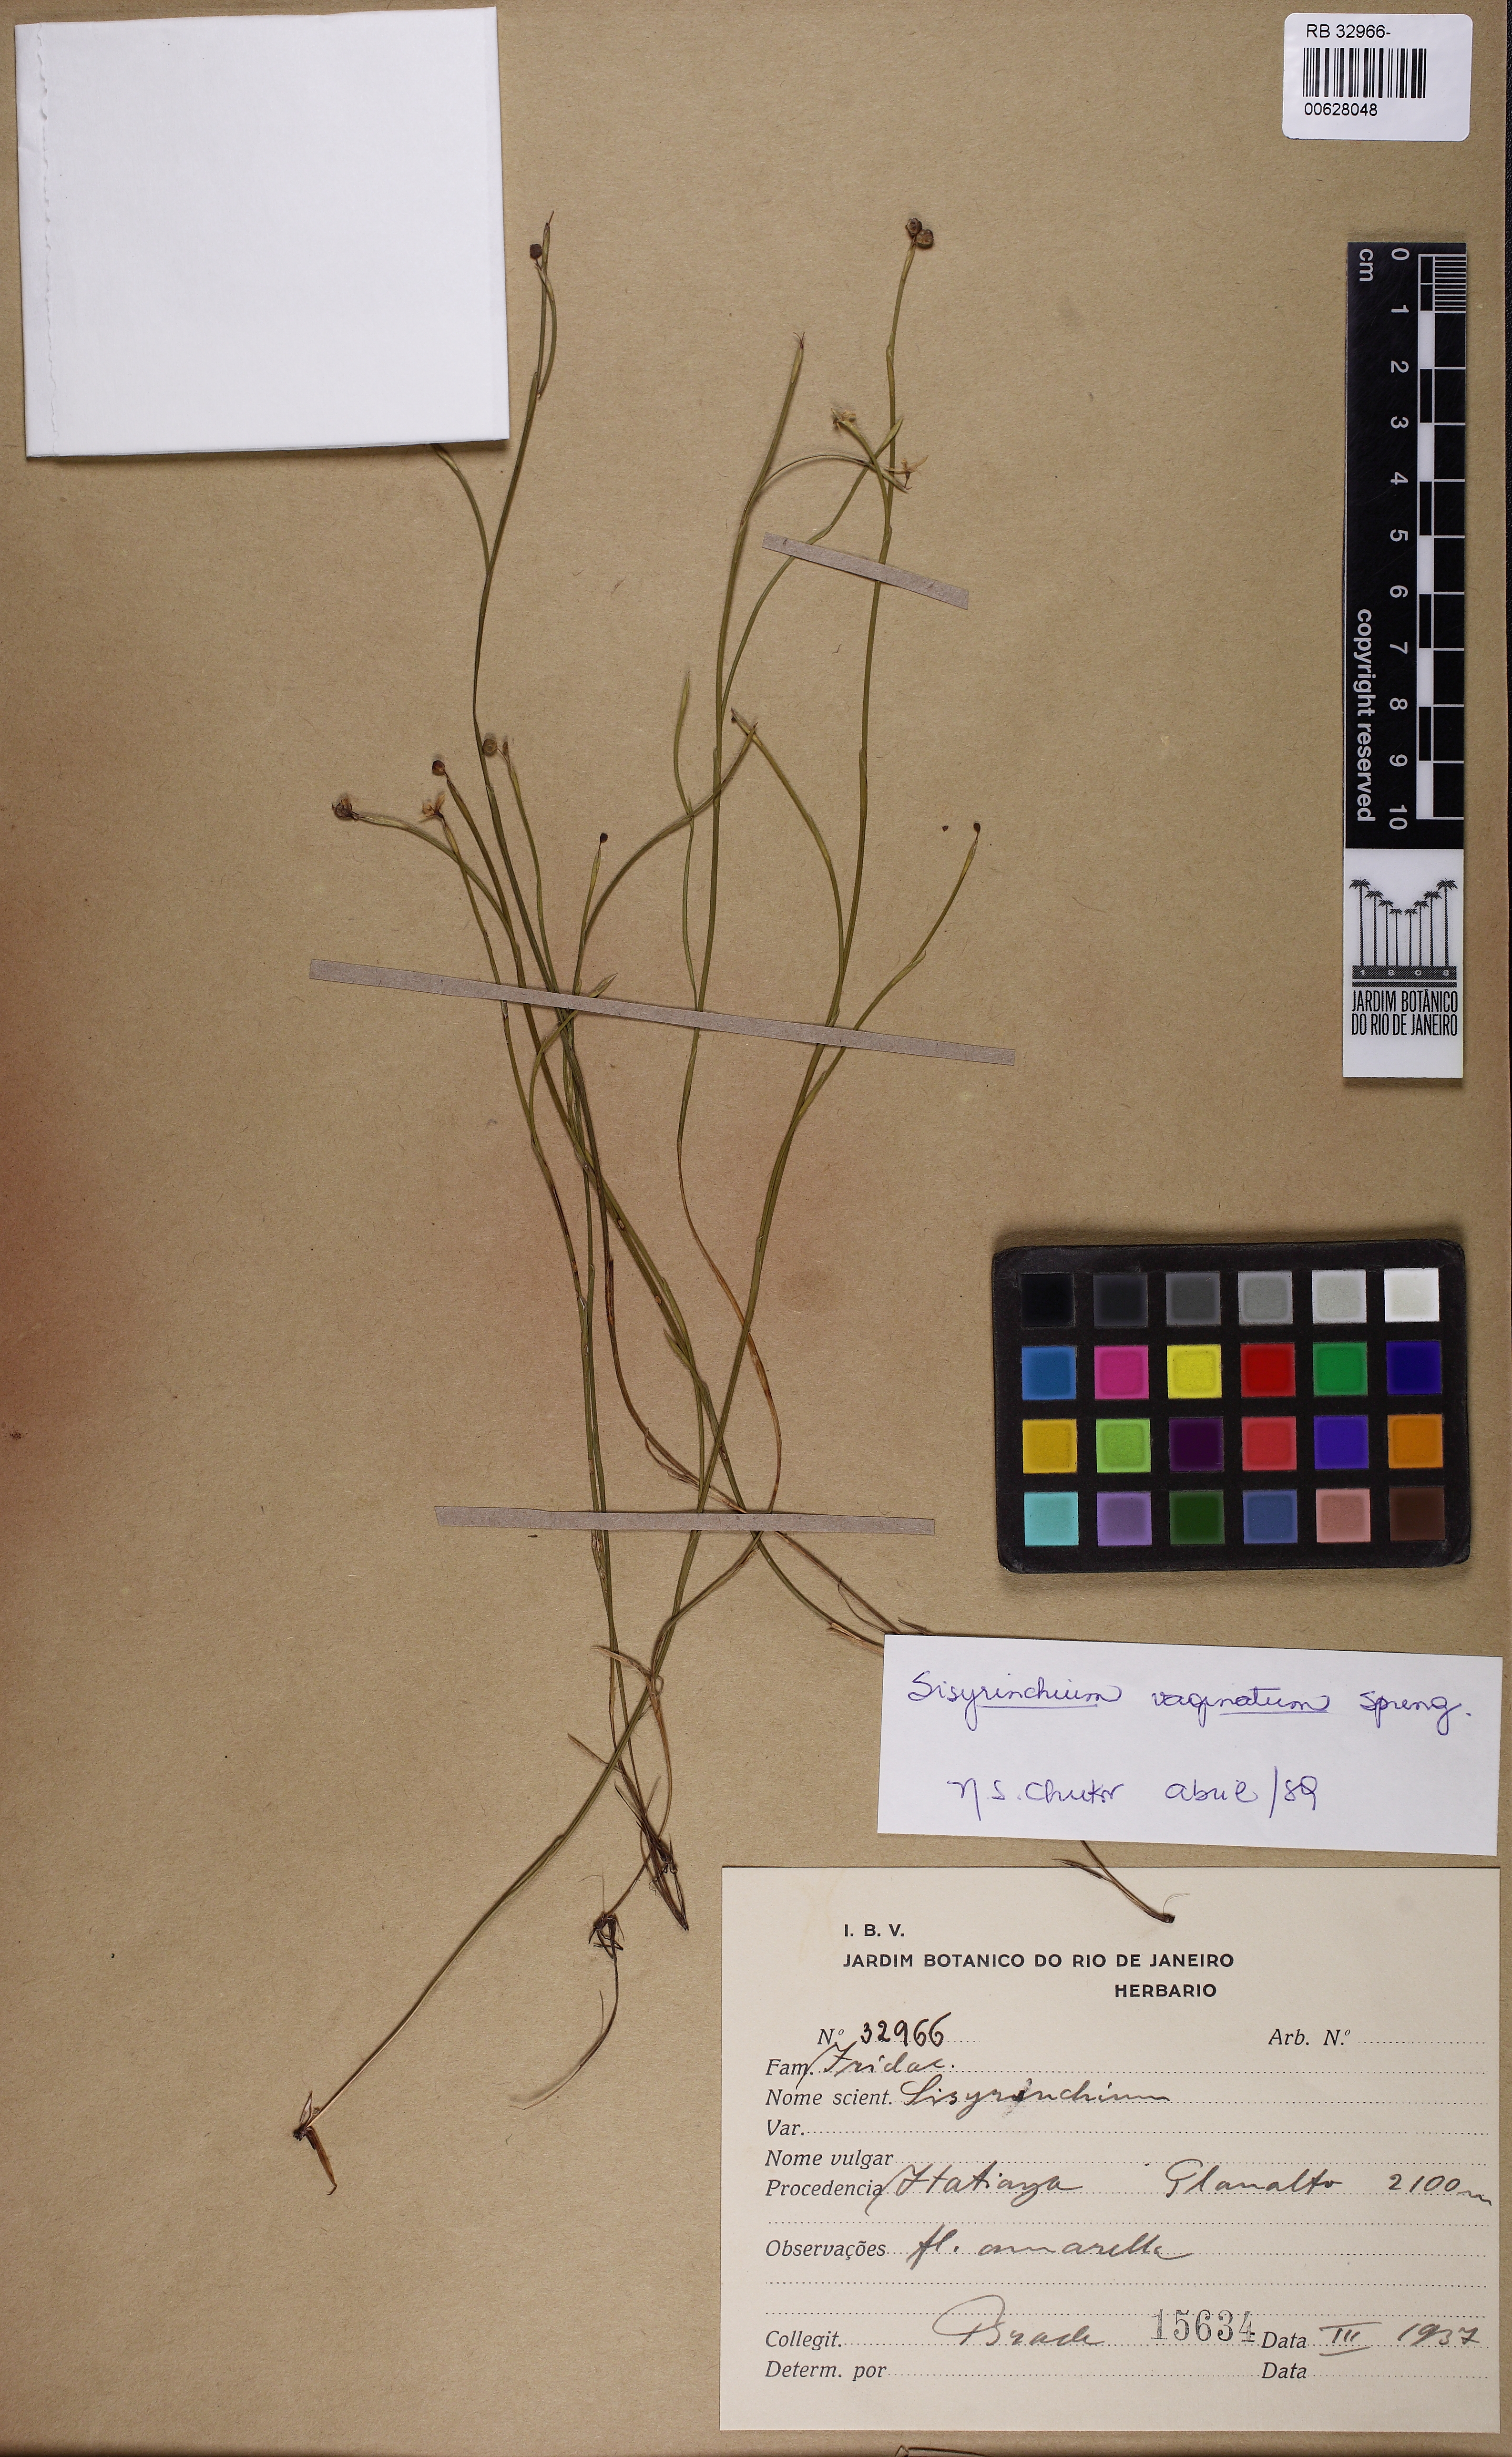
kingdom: Plantae
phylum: Tracheophyta
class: Liliopsida
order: Asparagales
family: Iridaceae
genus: Sisyrinchium
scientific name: Sisyrinchium vaginatum
